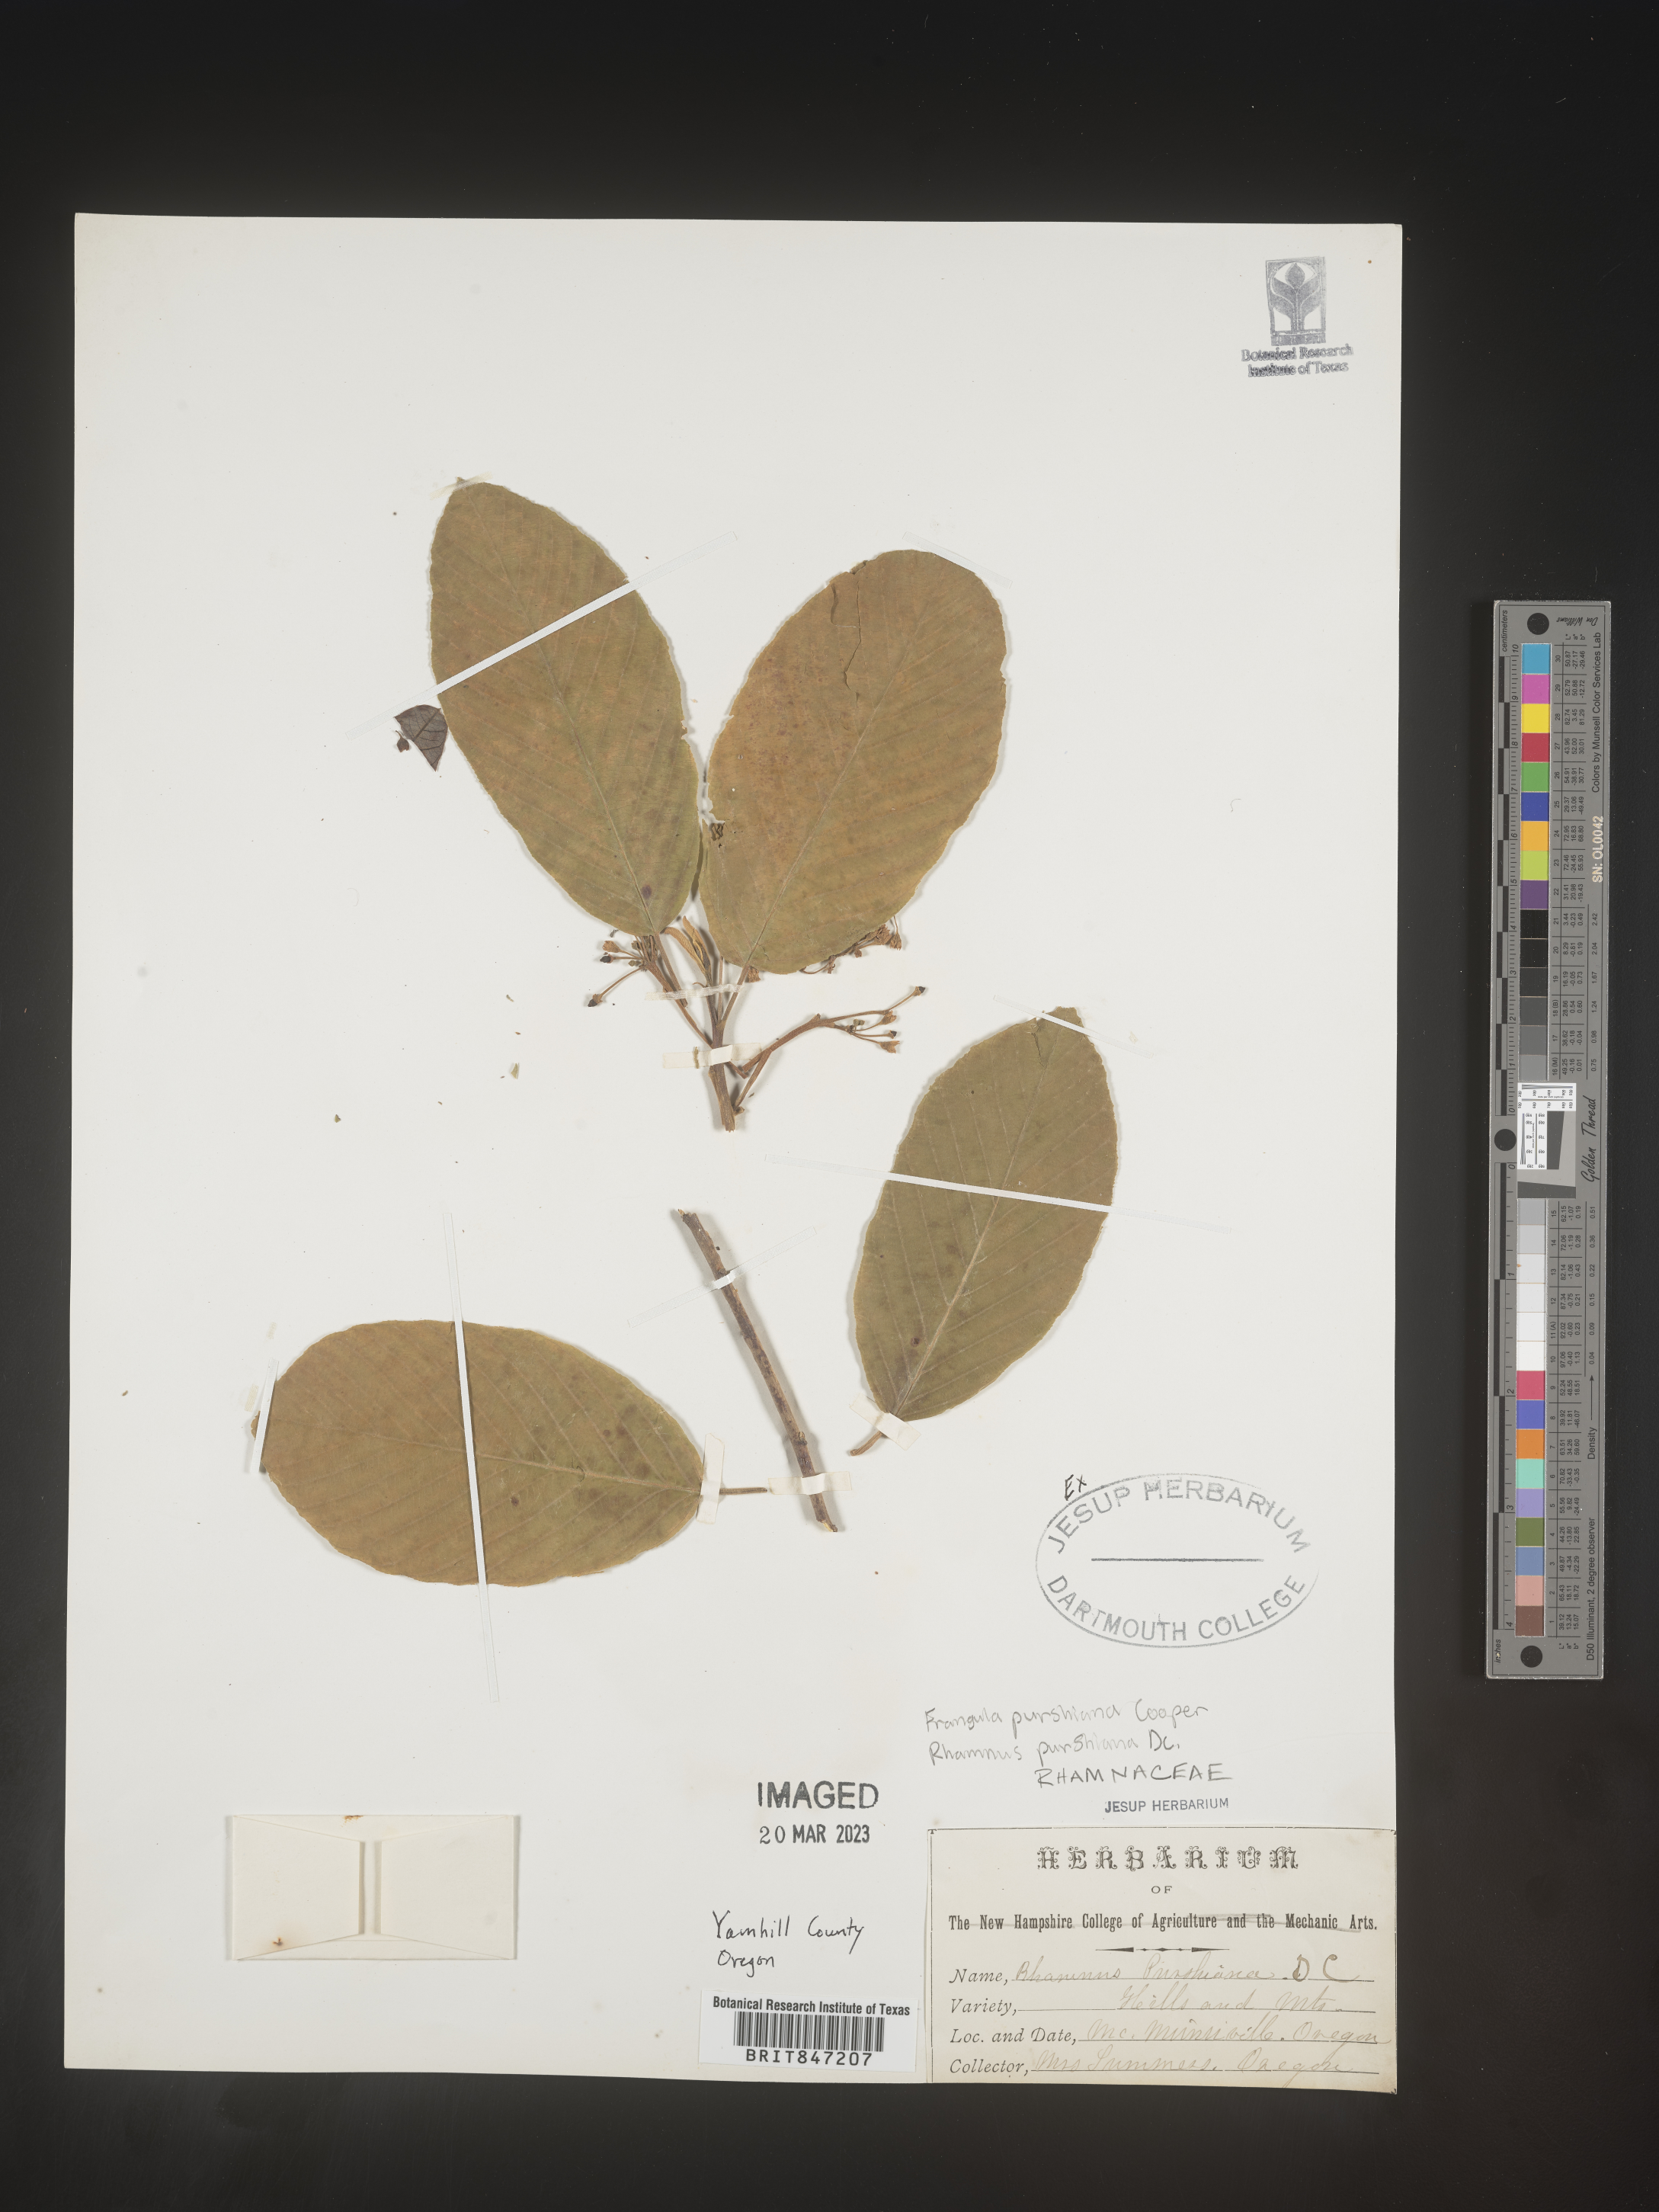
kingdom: Plantae
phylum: Tracheophyta
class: Magnoliopsida
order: Rosales
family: Rhamnaceae
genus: Frangula
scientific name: Frangula
